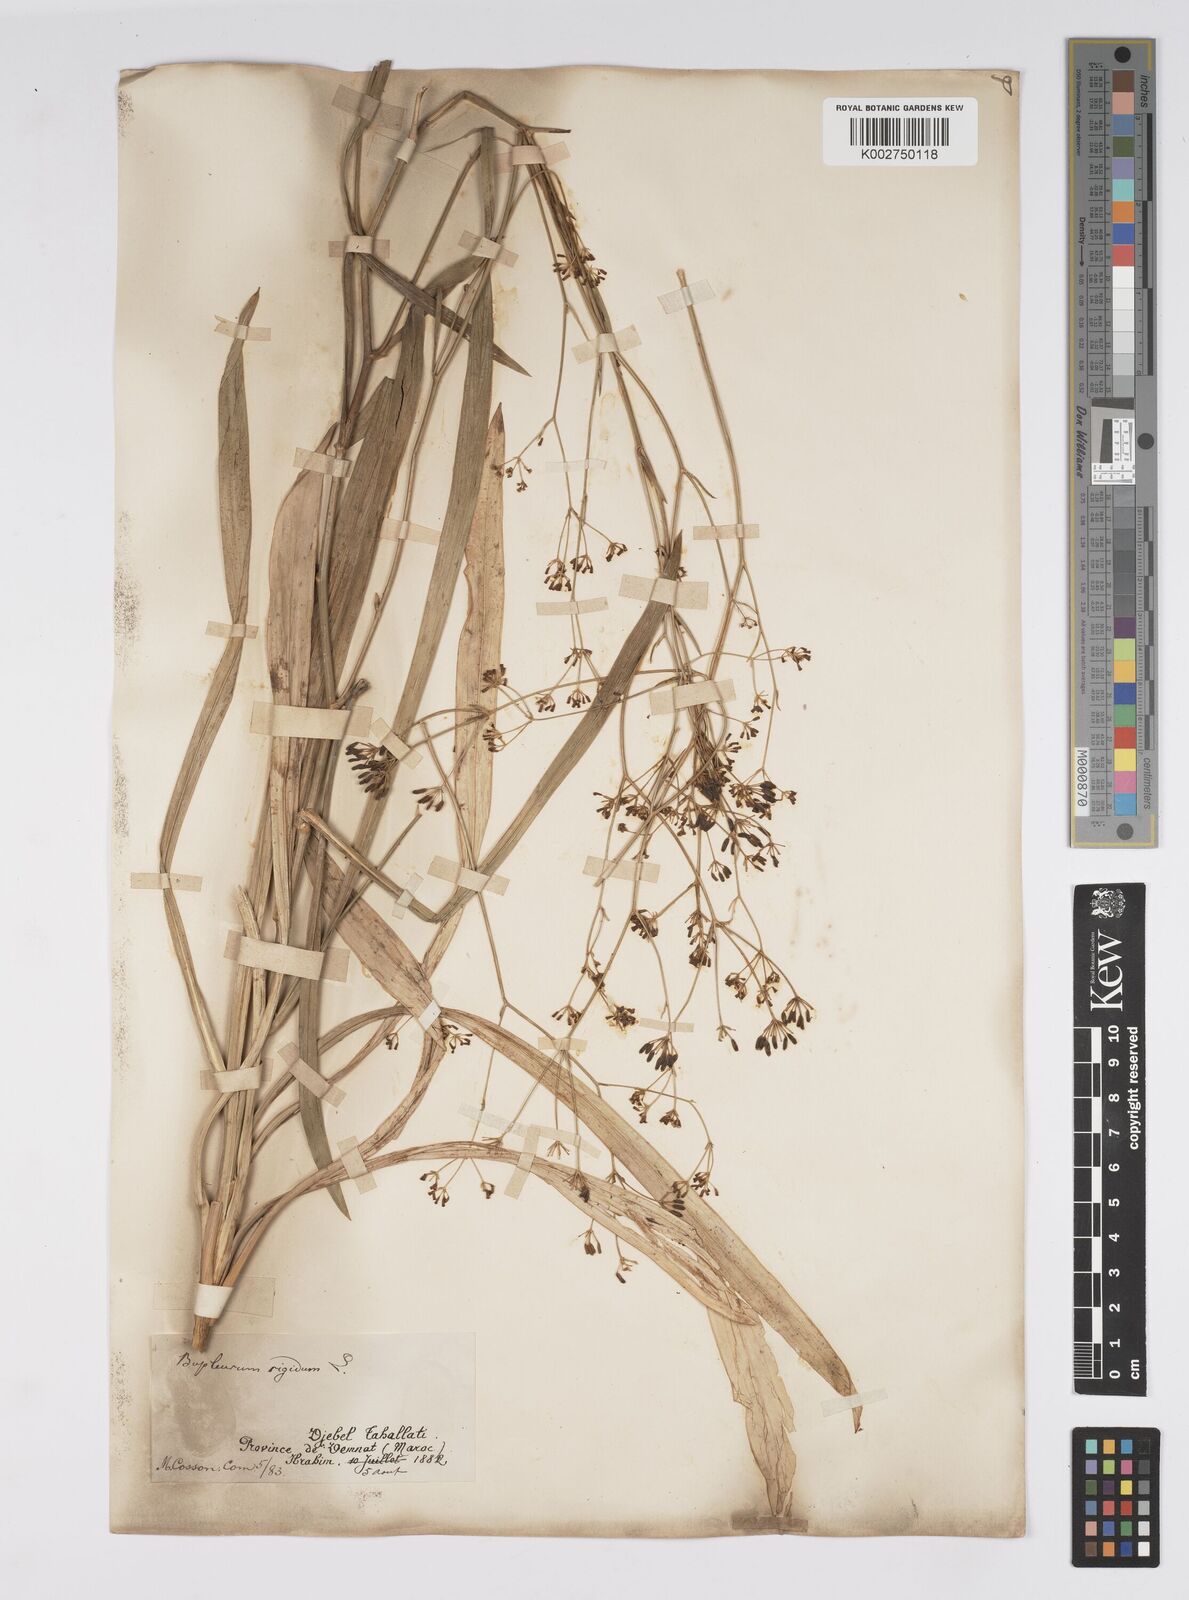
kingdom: Plantae
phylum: Tracheophyta
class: Magnoliopsida
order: Apiales
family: Apiaceae
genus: Bupleurum
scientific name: Bupleurum rigidum
